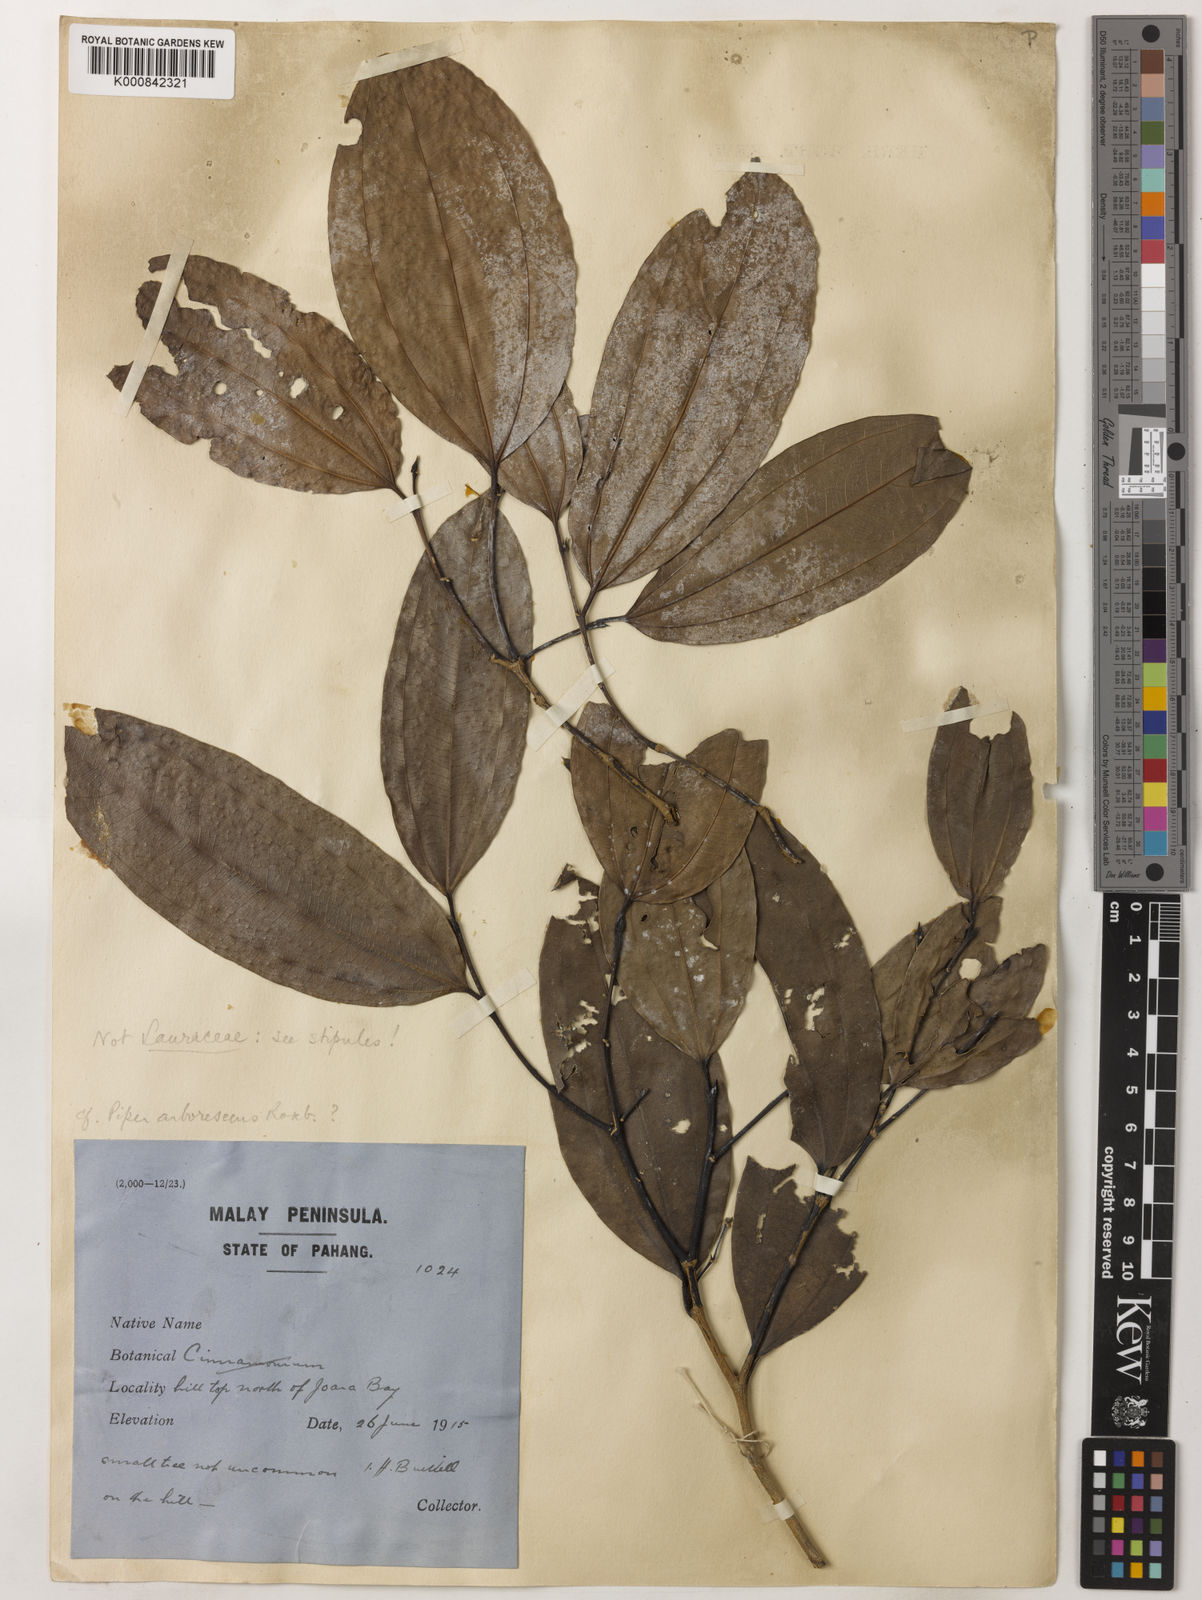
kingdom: Plantae
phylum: Tracheophyta
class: Magnoliopsida
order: Piperales
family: Piperaceae
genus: Piper
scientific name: Piper macropiper
